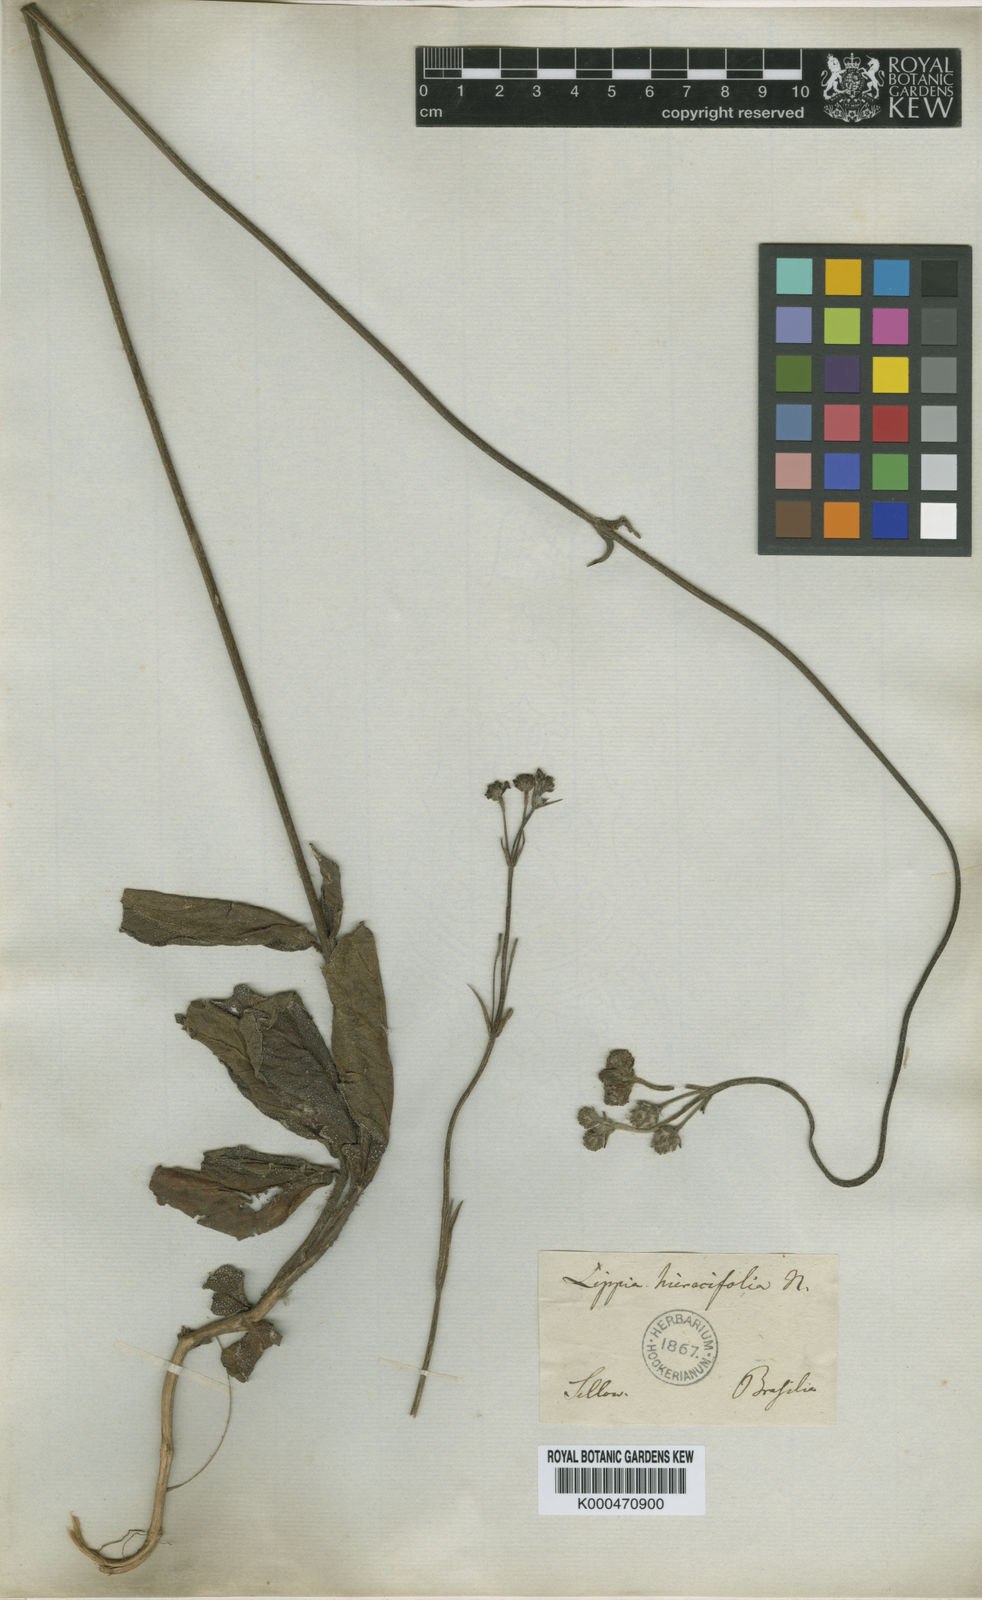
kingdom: Plantae
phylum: Tracheophyta
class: Magnoliopsida
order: Lamiales
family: Verbenaceae
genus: Lippia
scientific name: Lippia hieraciifolia
